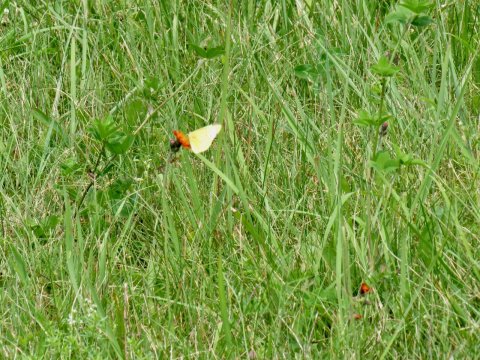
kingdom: Animalia
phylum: Arthropoda
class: Insecta
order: Lepidoptera
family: Pieridae
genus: Colias
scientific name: Colias eurytheme
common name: Orange Sulphur
